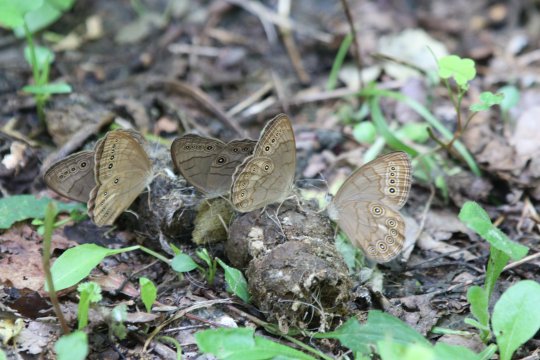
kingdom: Animalia
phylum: Arthropoda
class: Insecta
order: Lepidoptera
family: Nymphalidae
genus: Lethe
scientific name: Lethe eurydice
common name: Appalachian Eyed Brown
